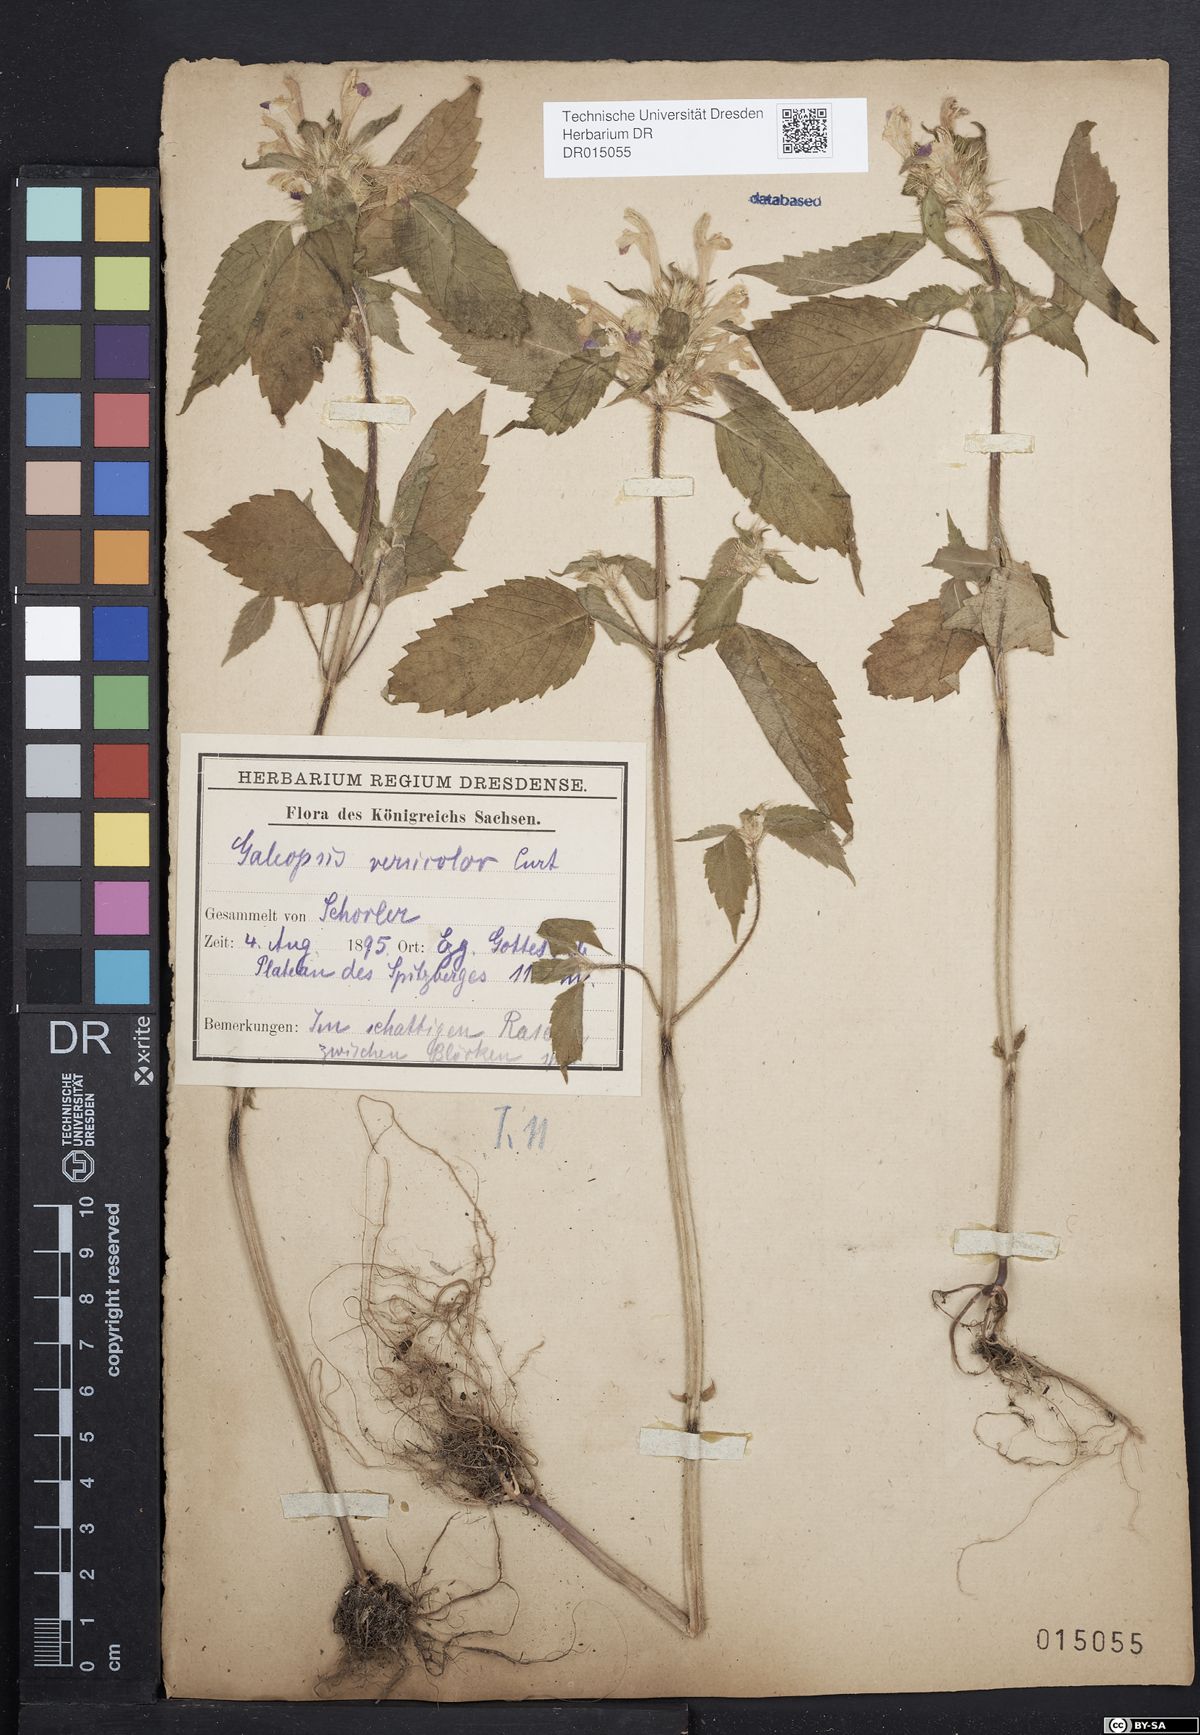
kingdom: Plantae
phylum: Tracheophyta
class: Magnoliopsida
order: Lamiales
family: Lamiaceae
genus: Galeopsis
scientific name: Galeopsis speciosa
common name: Large-flowered hemp-nettle
